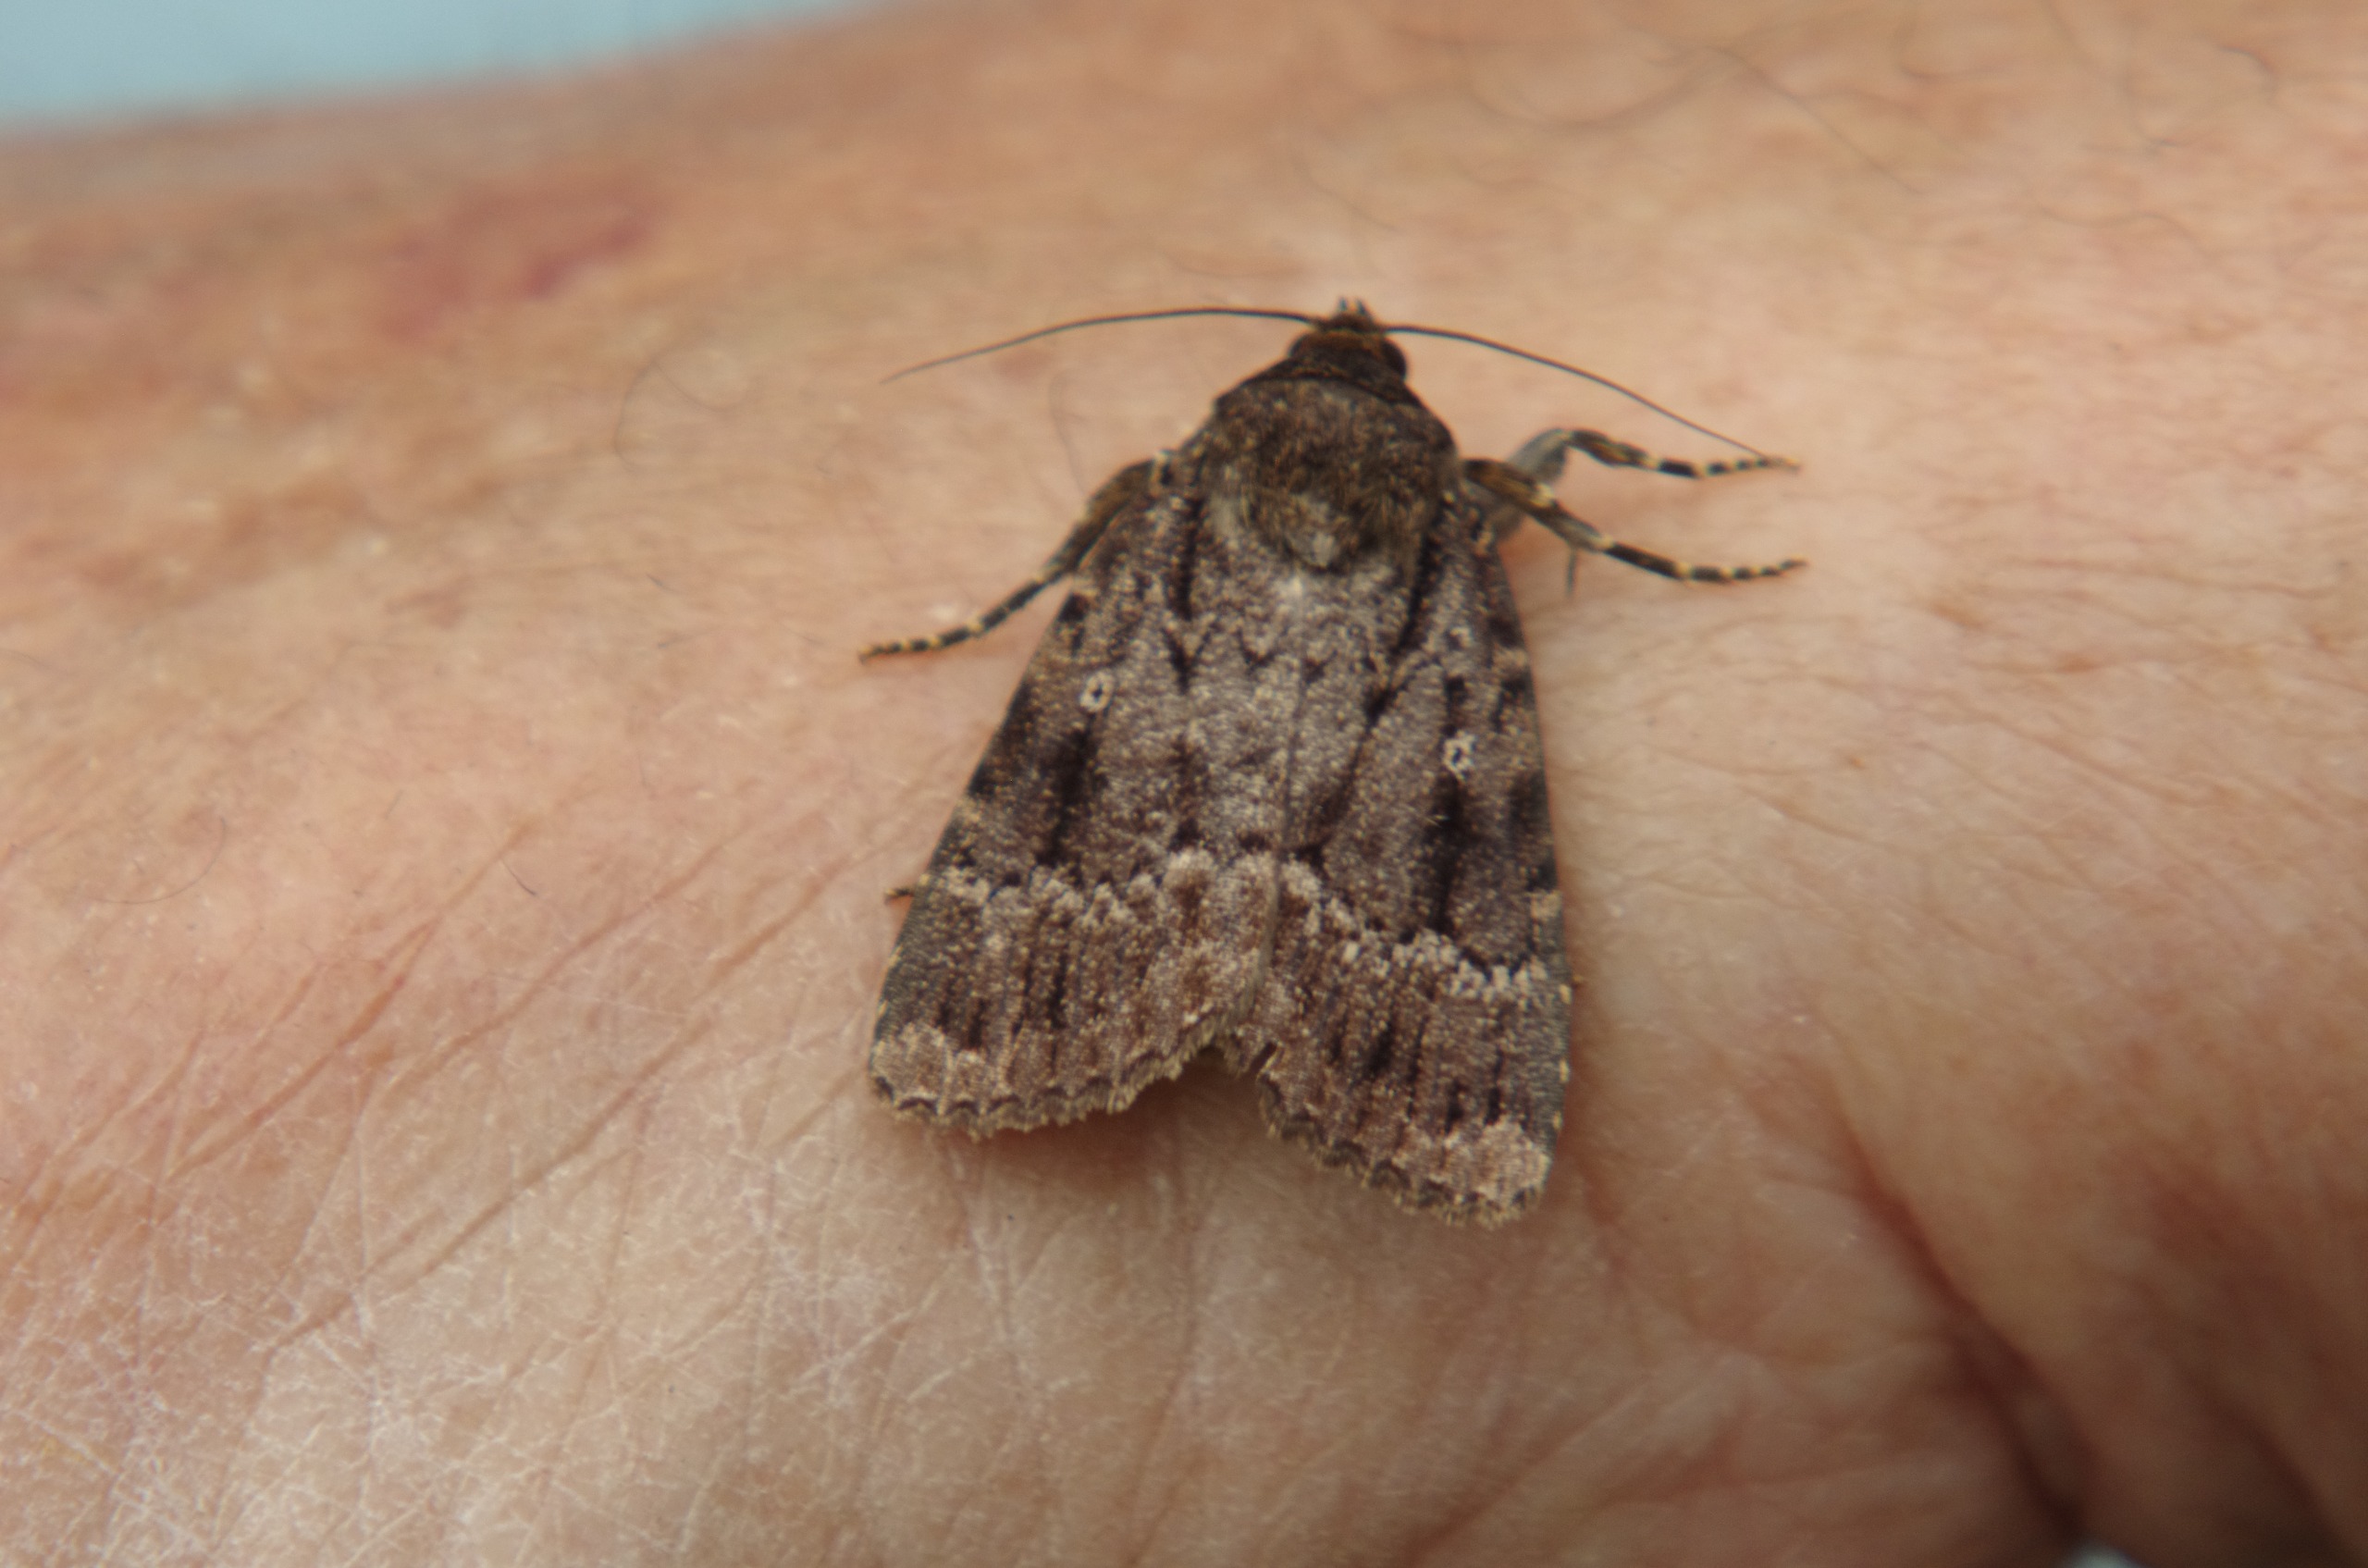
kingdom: Animalia
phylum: Arthropoda
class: Insecta
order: Lepidoptera
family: Noctuidae
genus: Amphipyra
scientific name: Amphipyra pyramidea
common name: Pyramideugle
